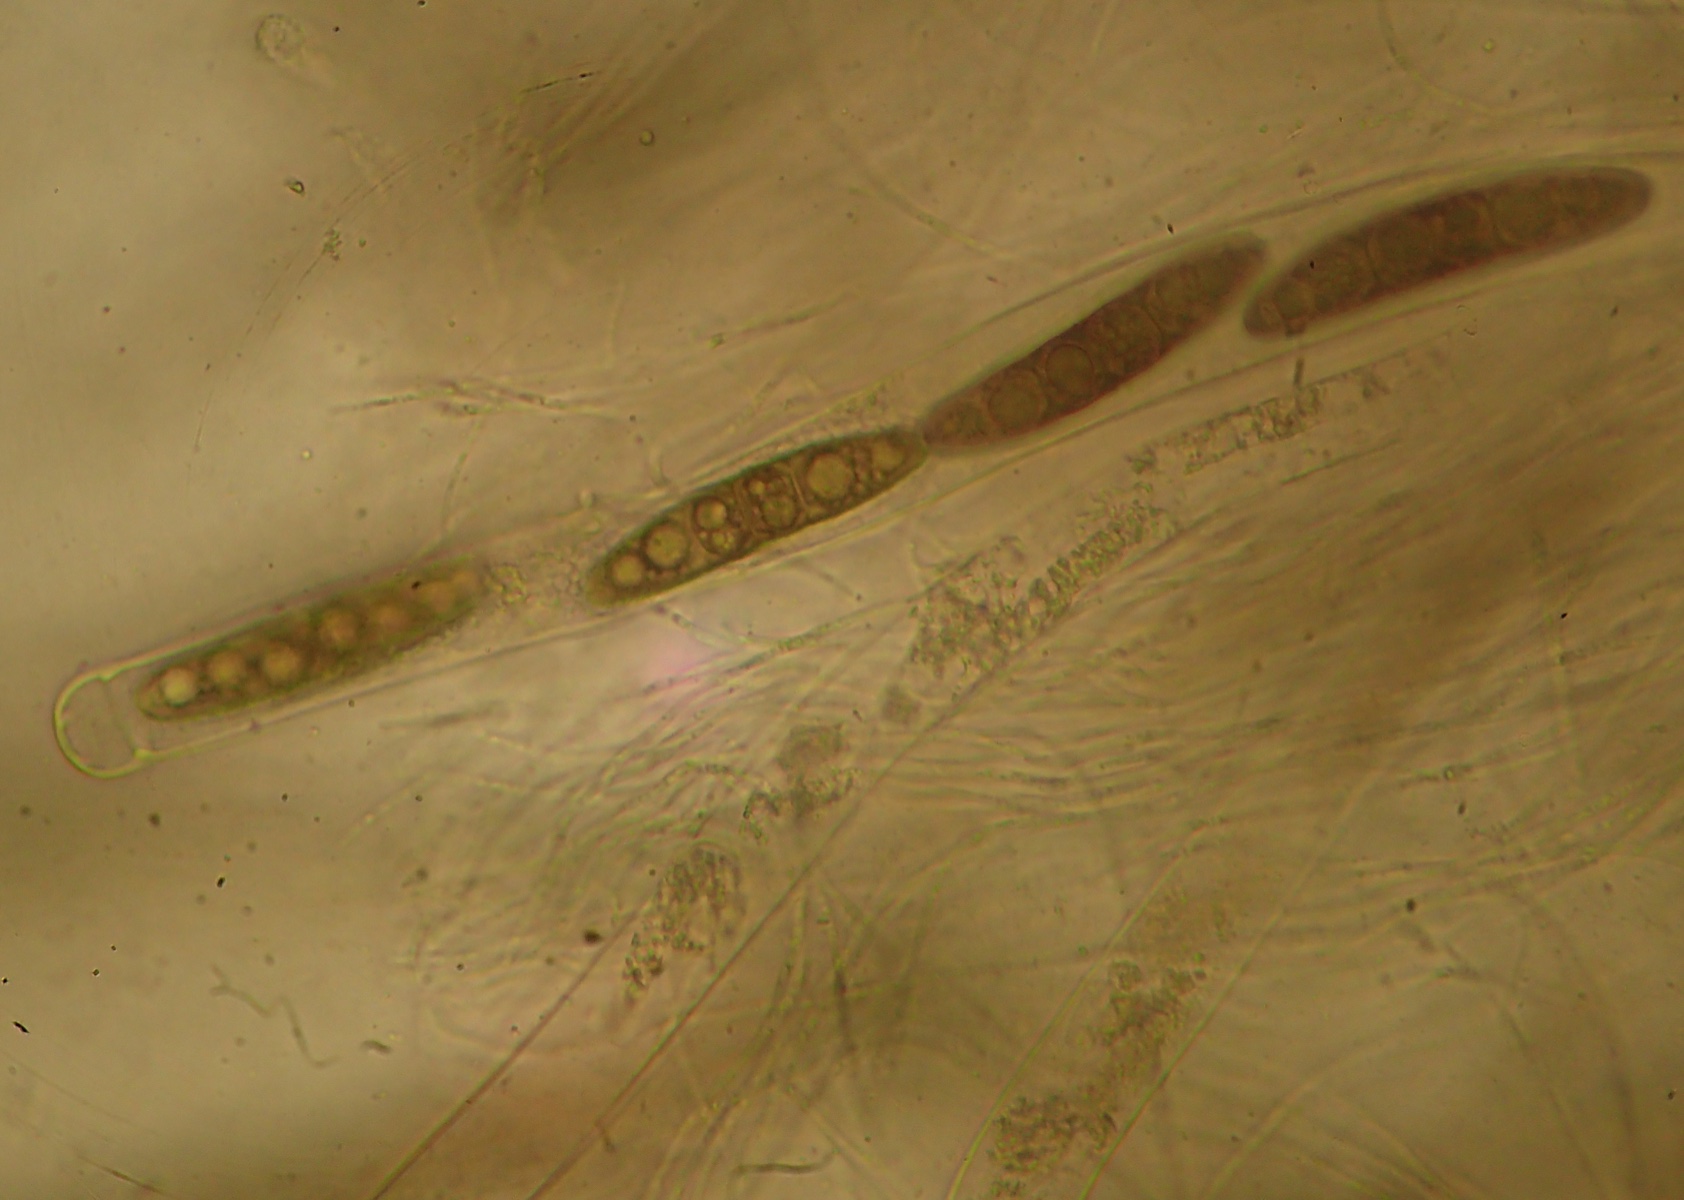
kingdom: Fungi
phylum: Ascomycota
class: Dothideomycetes
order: Pleosporales
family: Massariaceae
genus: Massaria
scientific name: Massaria conspurcata
